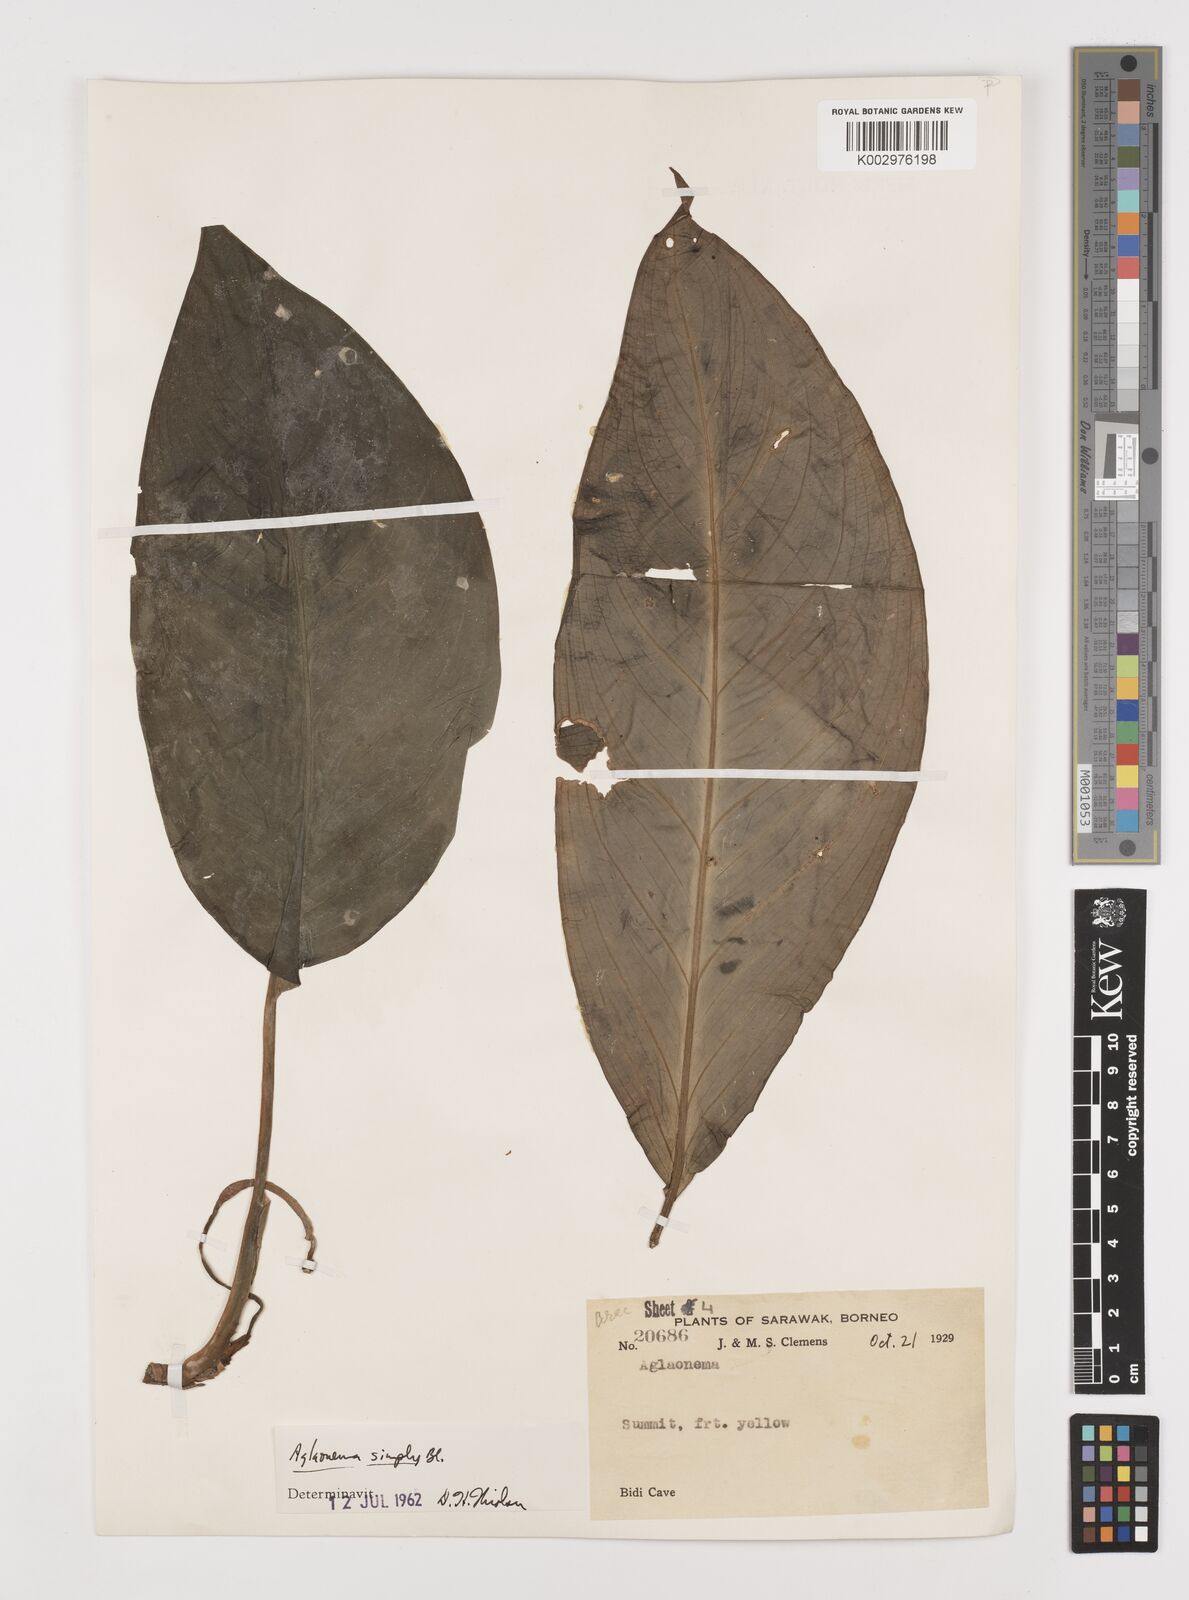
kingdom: Plantae
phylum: Tracheophyta
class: Liliopsida
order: Alismatales
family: Araceae
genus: Aglaonema
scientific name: Aglaonema simplex
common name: Malayan-sword
